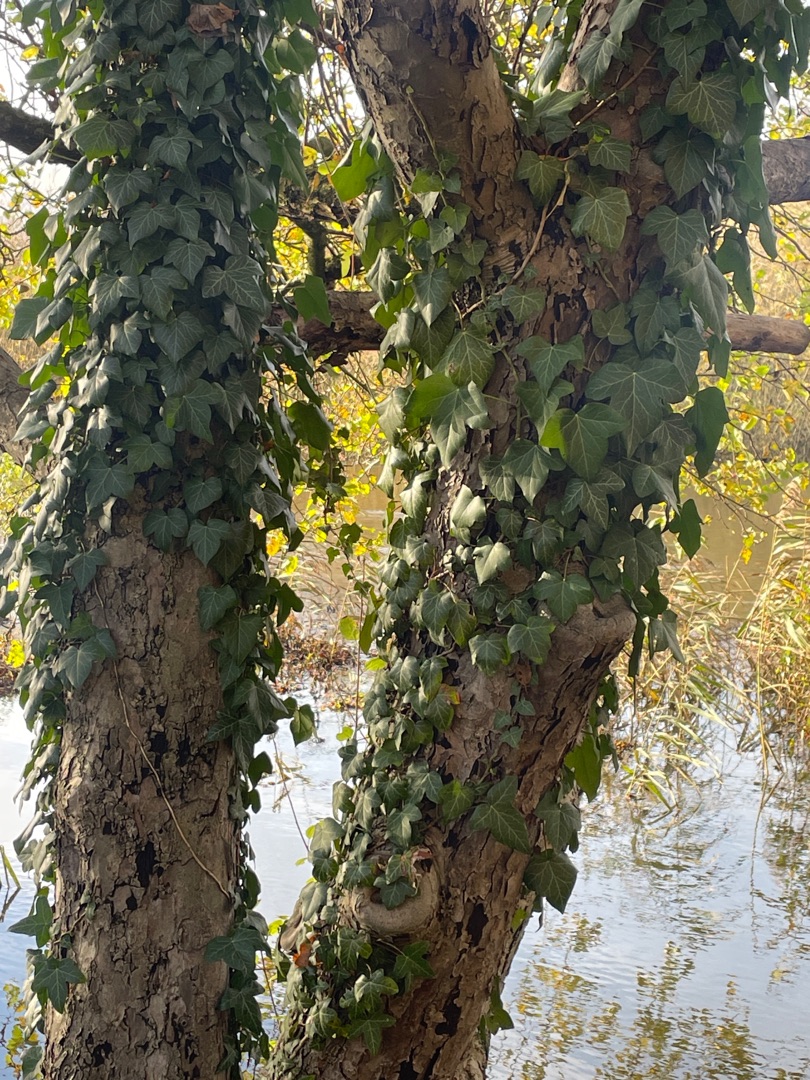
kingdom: Plantae
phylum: Tracheophyta
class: Magnoliopsida
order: Apiales
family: Araliaceae
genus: Hedera
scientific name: Hedera helix
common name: Vedbend
